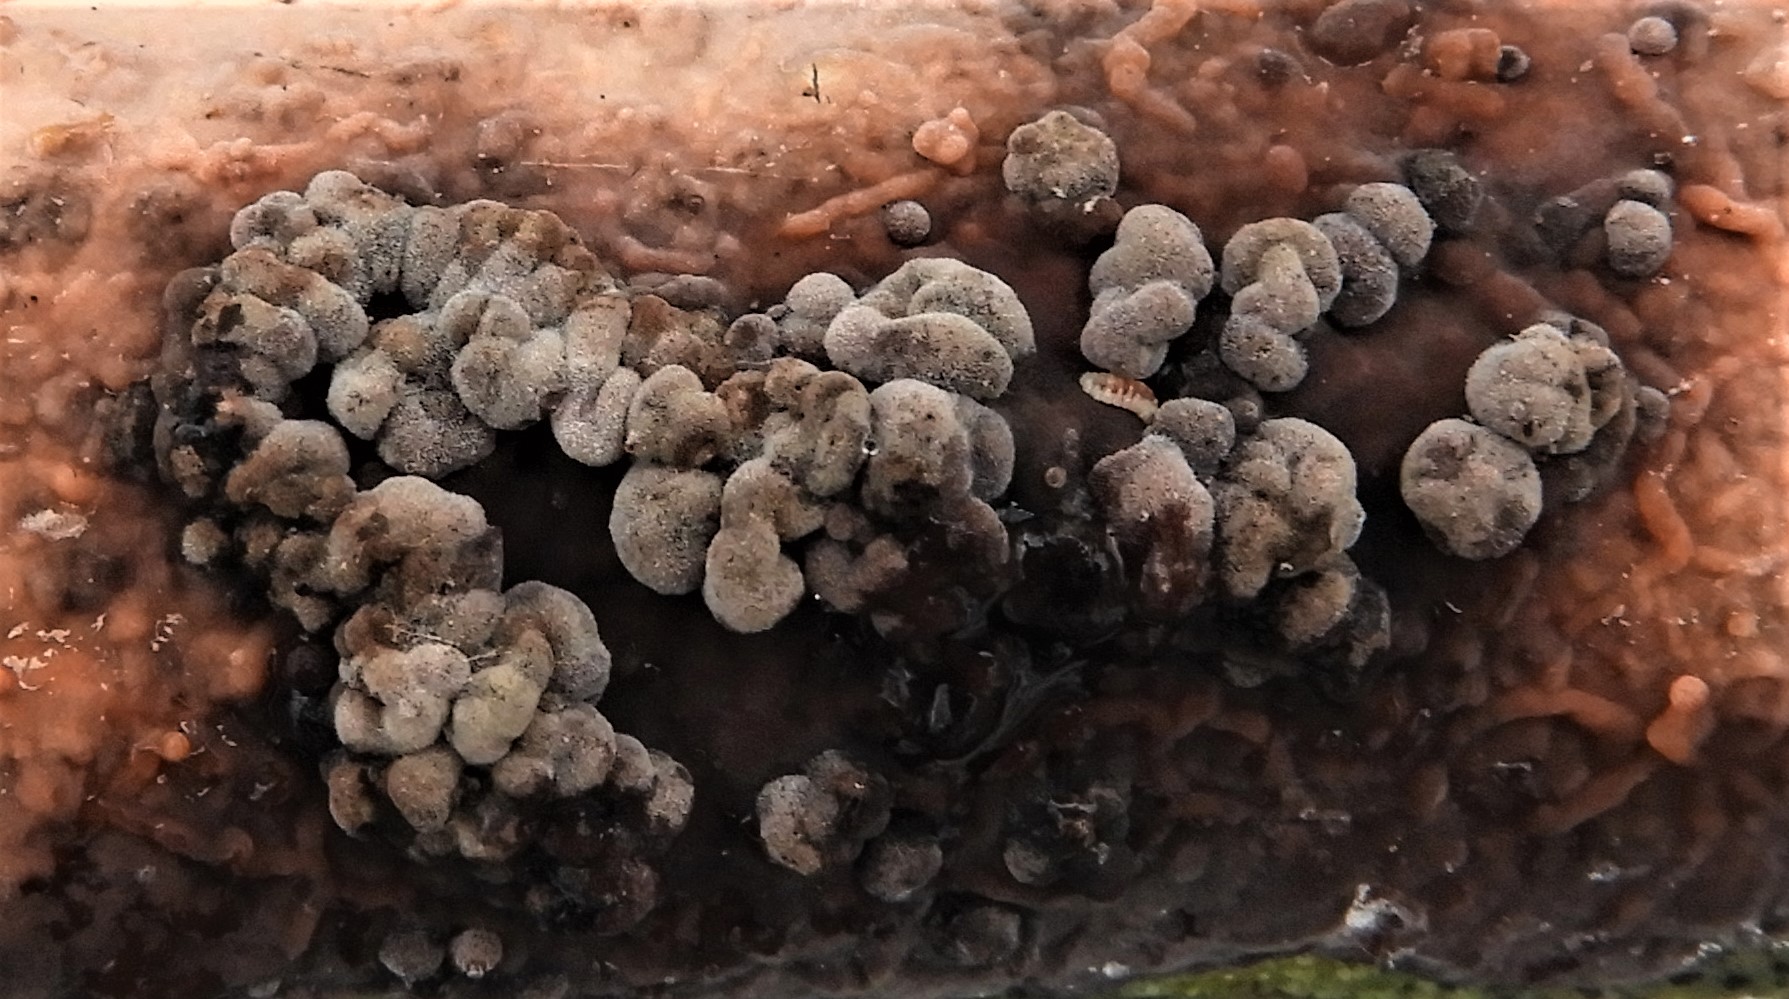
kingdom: Fungi
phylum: Basidiomycota
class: Agaricomycetes
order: Russulales
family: Peniophoraceae
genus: Peniophora
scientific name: Peniophora incarnata
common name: laksefarvet voksskind
